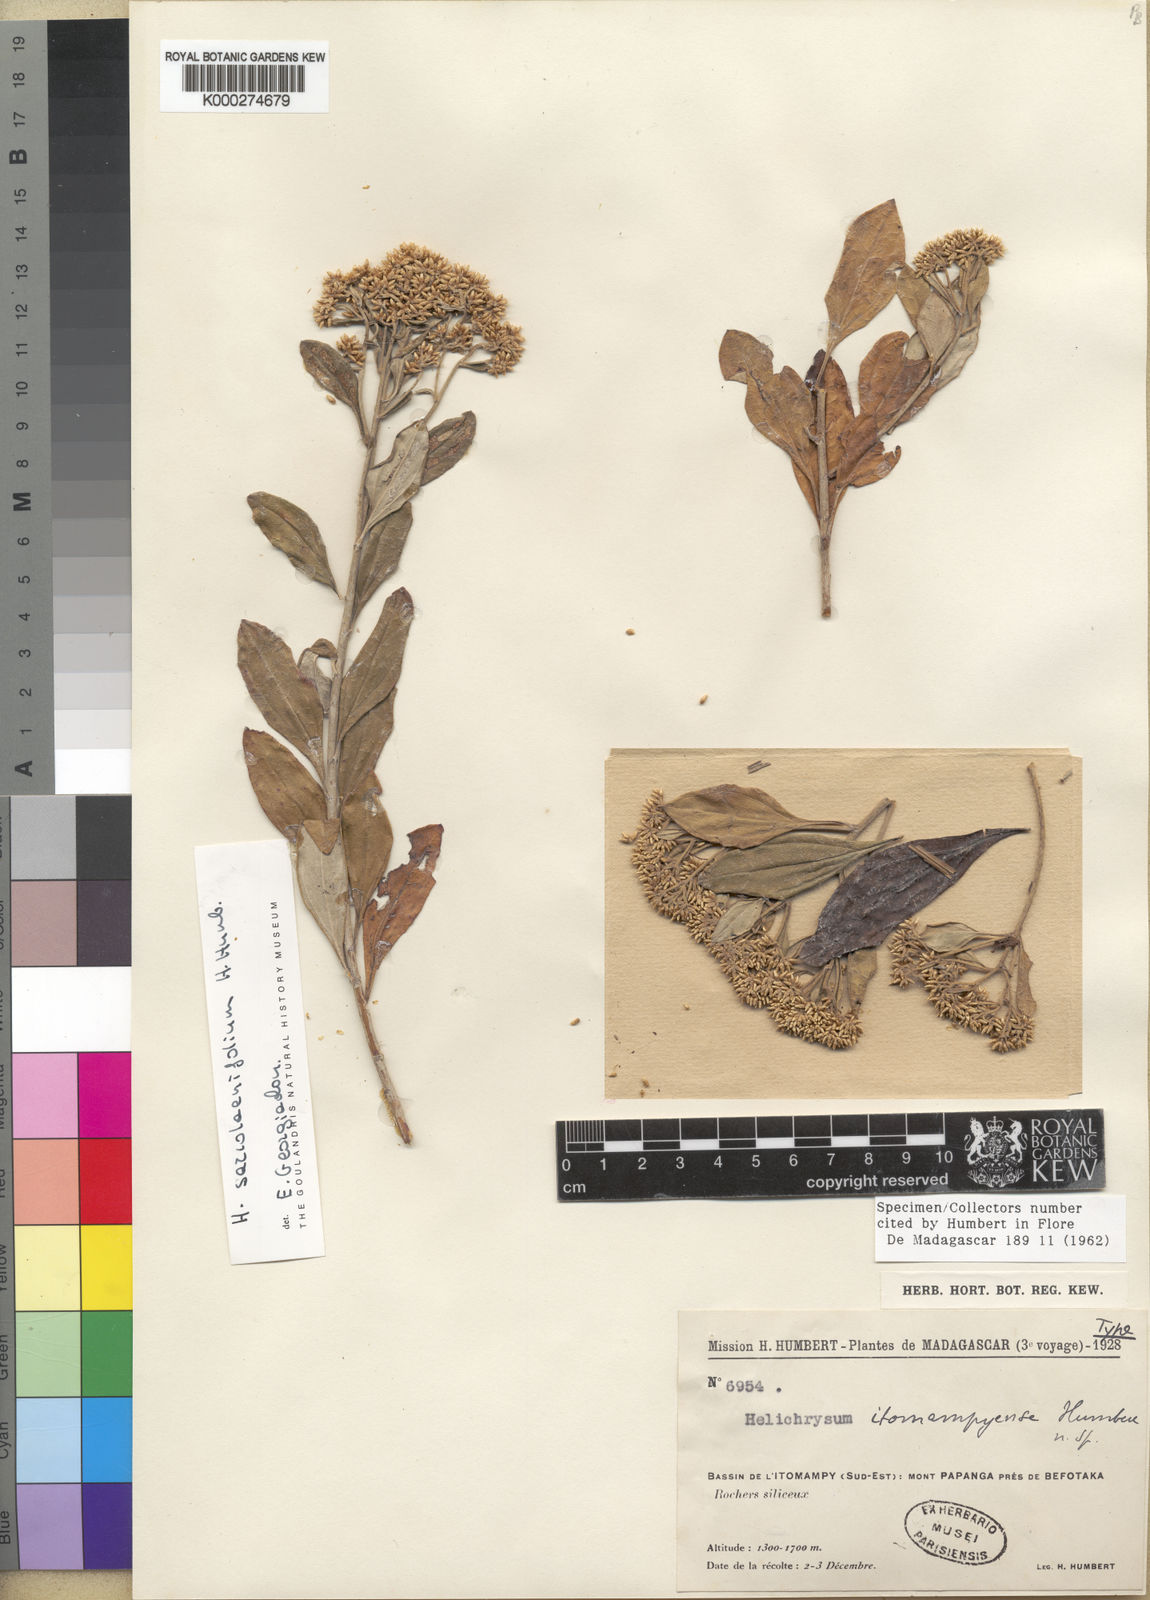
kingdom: Plantae
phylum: Tracheophyta
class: Magnoliopsida
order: Asterales
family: Asteraceae
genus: Helichrysum
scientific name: Helichrysum sarcolaenifolium
